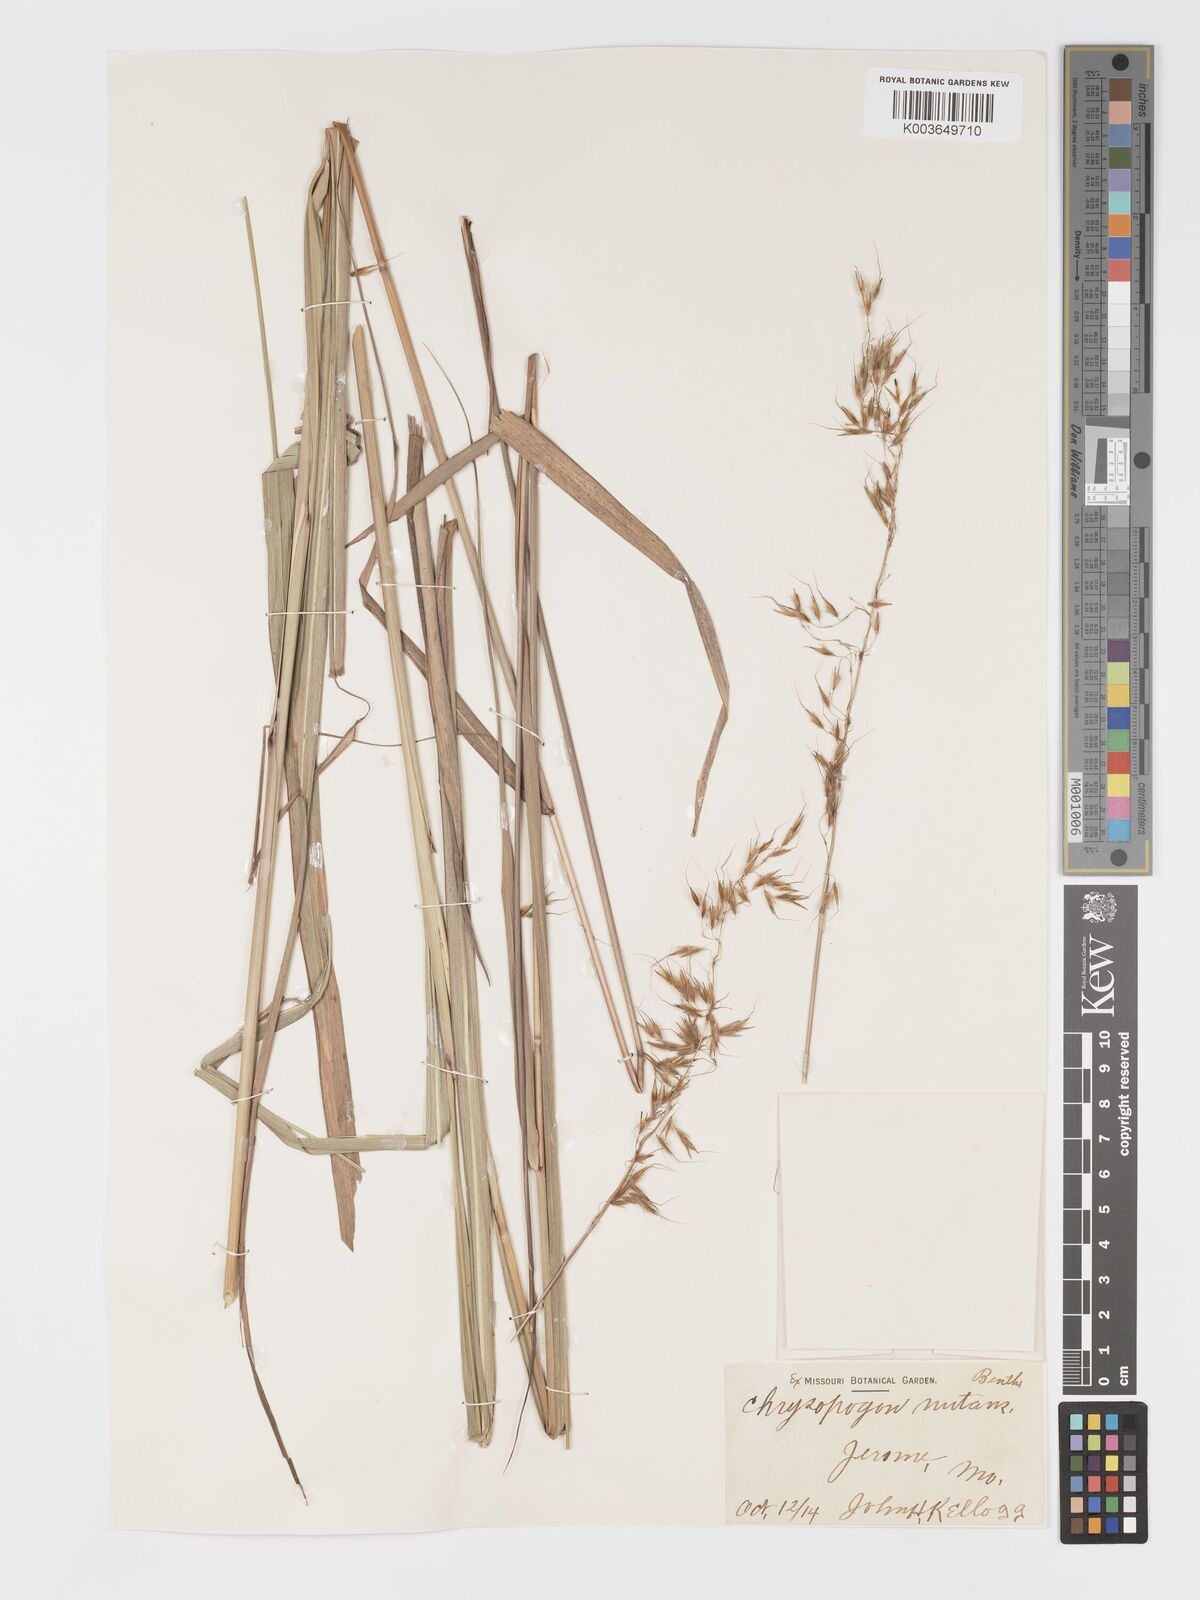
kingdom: Plantae
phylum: Tracheophyta
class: Liliopsida
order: Poales
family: Poaceae
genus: Sorghastrum
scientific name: Sorghastrum nutans
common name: Indian grass
